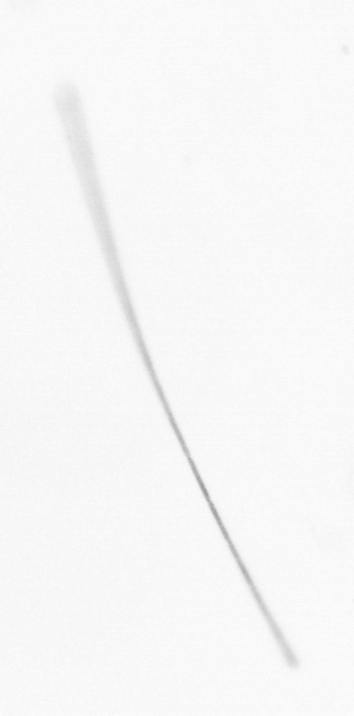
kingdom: Chromista
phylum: Ochrophyta
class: Bacillariophyceae
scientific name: Bacillariophyceae
